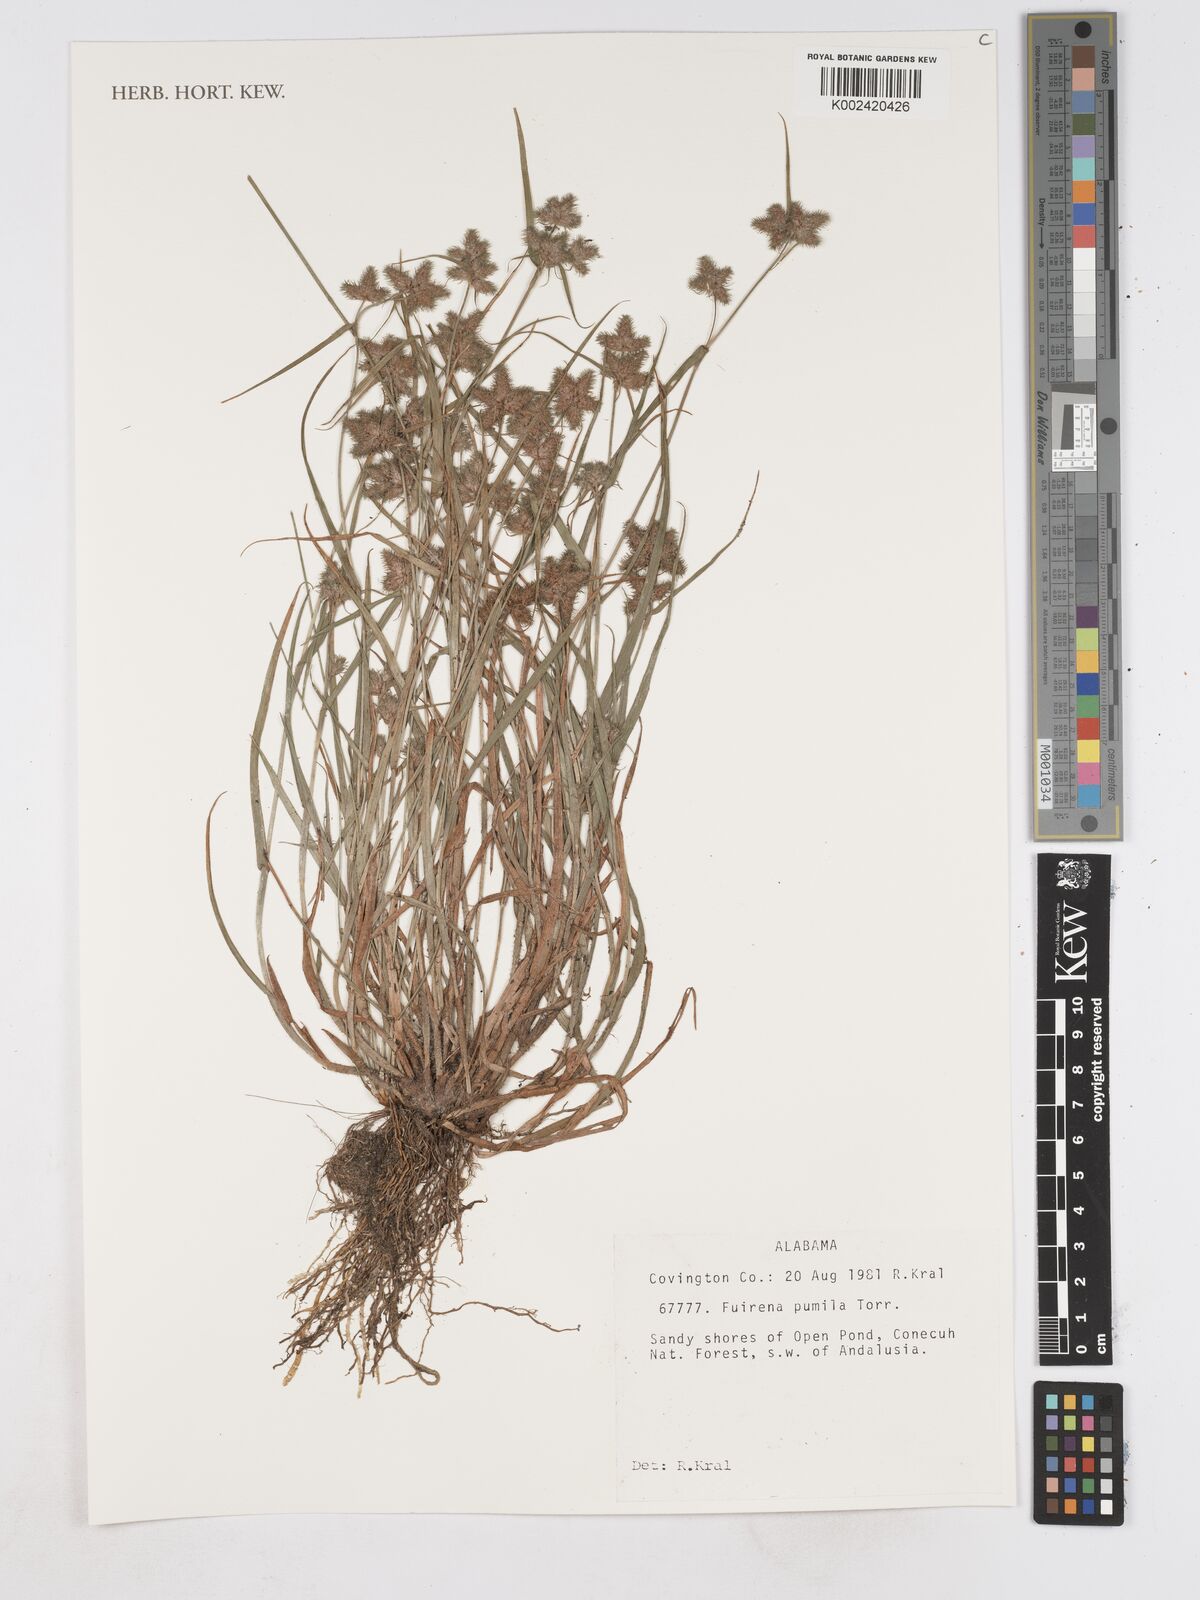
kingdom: Plantae
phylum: Tracheophyta
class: Liliopsida
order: Poales
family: Cyperaceae
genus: Fuirena
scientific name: Fuirena pumila
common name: Dwarf umbrella sedge
